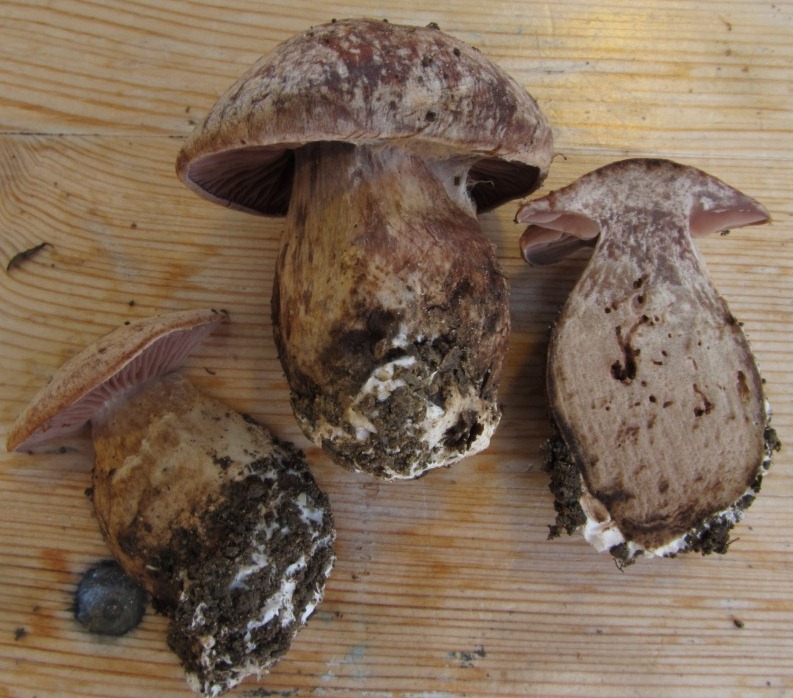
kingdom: Fungi
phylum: Basidiomycota
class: Agaricomycetes
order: Agaricales
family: Cortinariaceae
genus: Cortinarius
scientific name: Cortinarius sordescens
